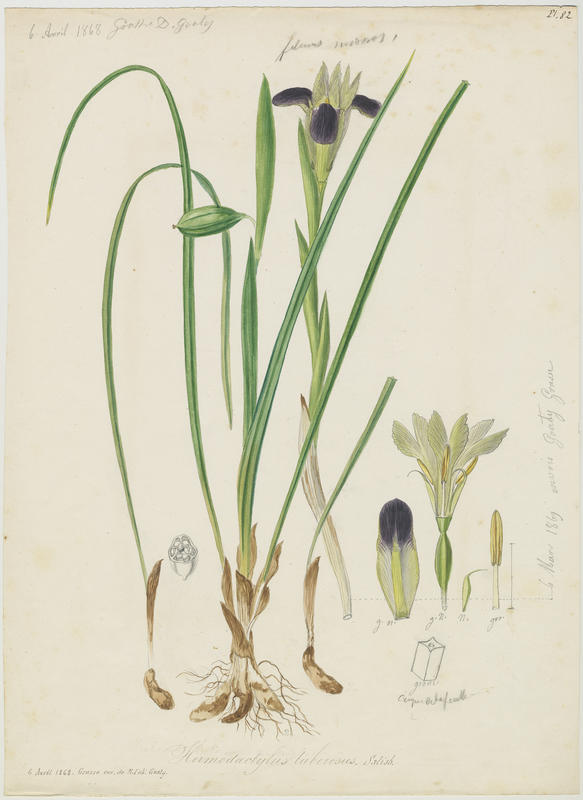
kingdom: Plantae
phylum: Tracheophyta
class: Liliopsida
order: Asparagales
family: Iridaceae
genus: Iris
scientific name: Iris tuberosa
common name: Snake's-head iris
